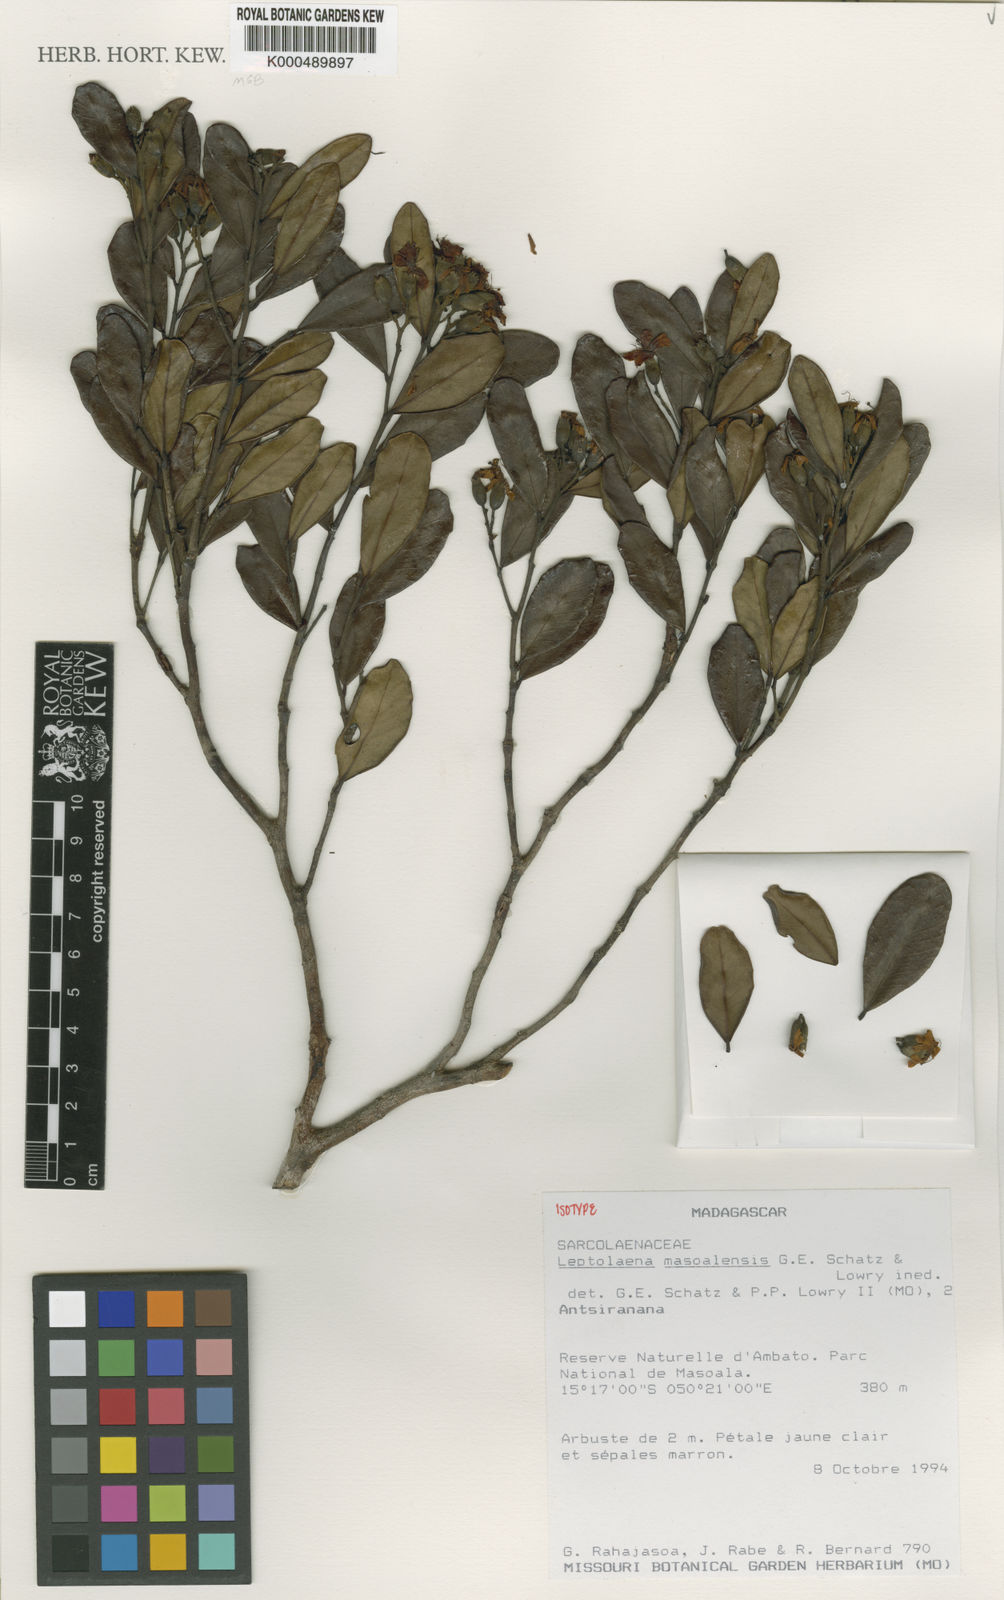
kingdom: Plantae
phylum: Tracheophyta
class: Magnoliopsida
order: Malvales
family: Sarcolaenaceae
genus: Leptolaena
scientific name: Leptolaena masoalensis
